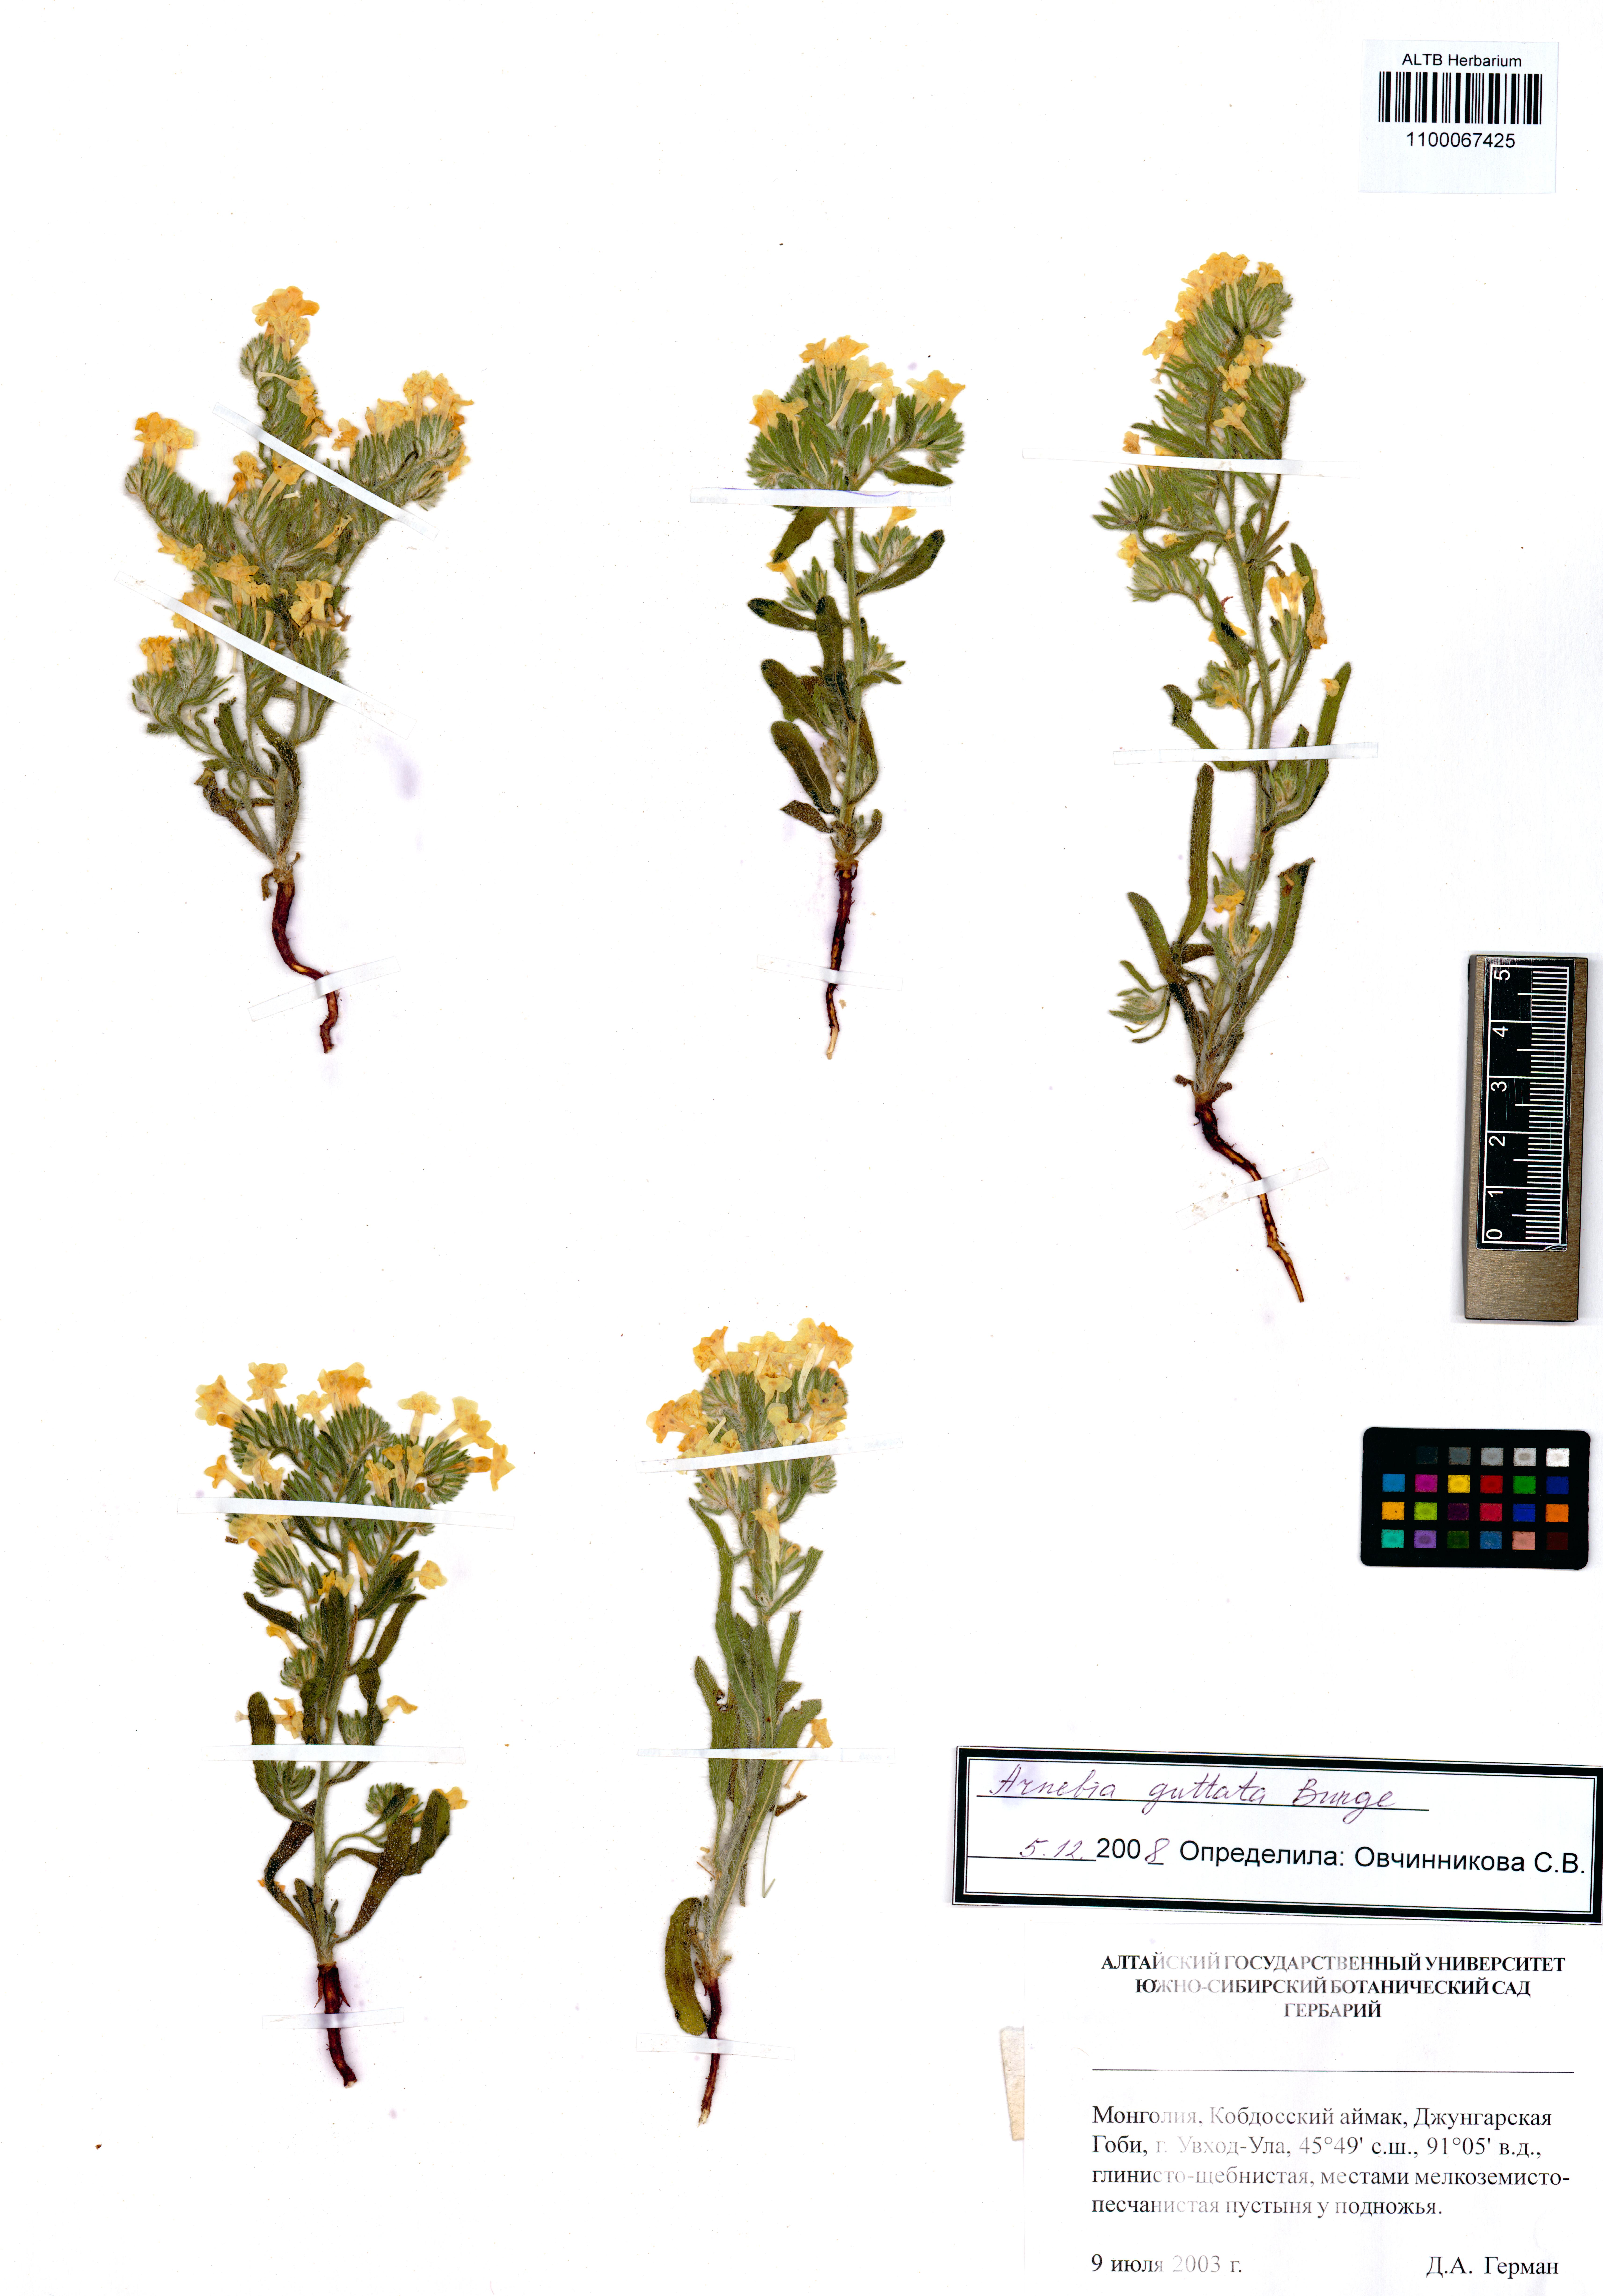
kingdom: Plantae
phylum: Tracheophyta
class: Magnoliopsida
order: Boraginales
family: Boraginaceae
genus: Arnebia
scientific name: Arnebia guttata
